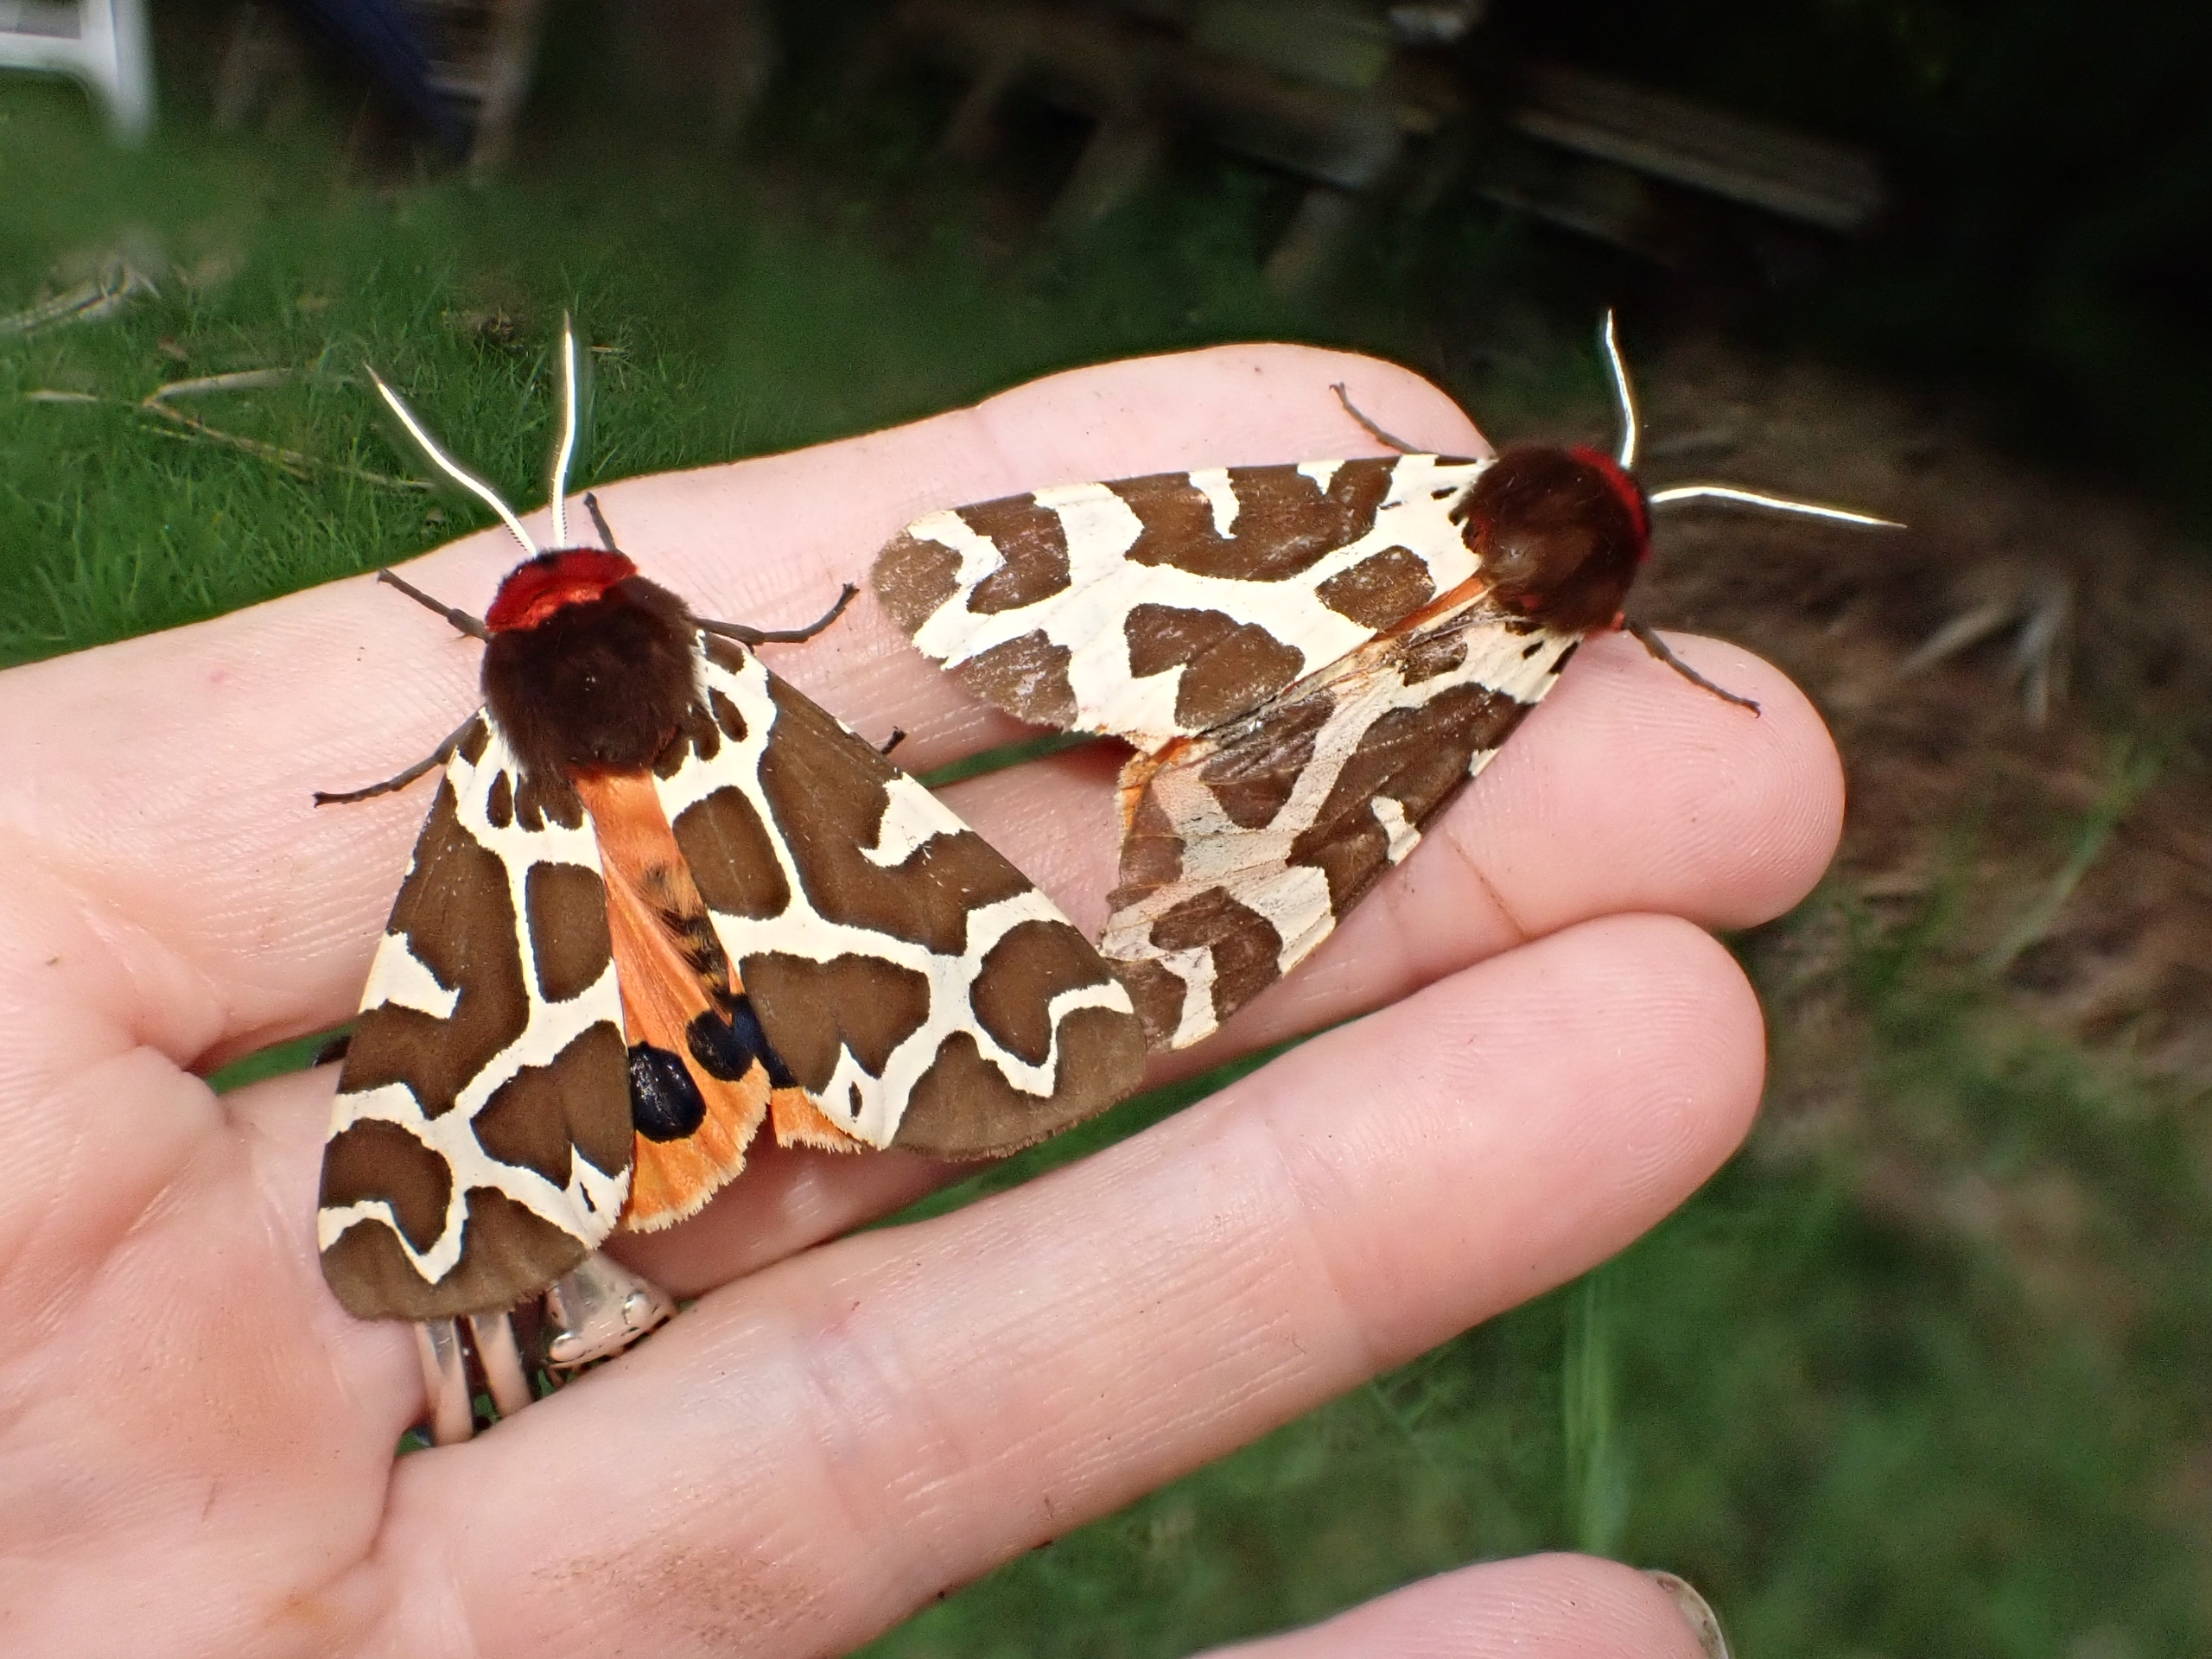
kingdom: Animalia
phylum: Arthropoda
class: Insecta
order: Lepidoptera
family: Erebidae
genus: Arctia
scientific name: Arctia caja
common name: Brun bjørn
